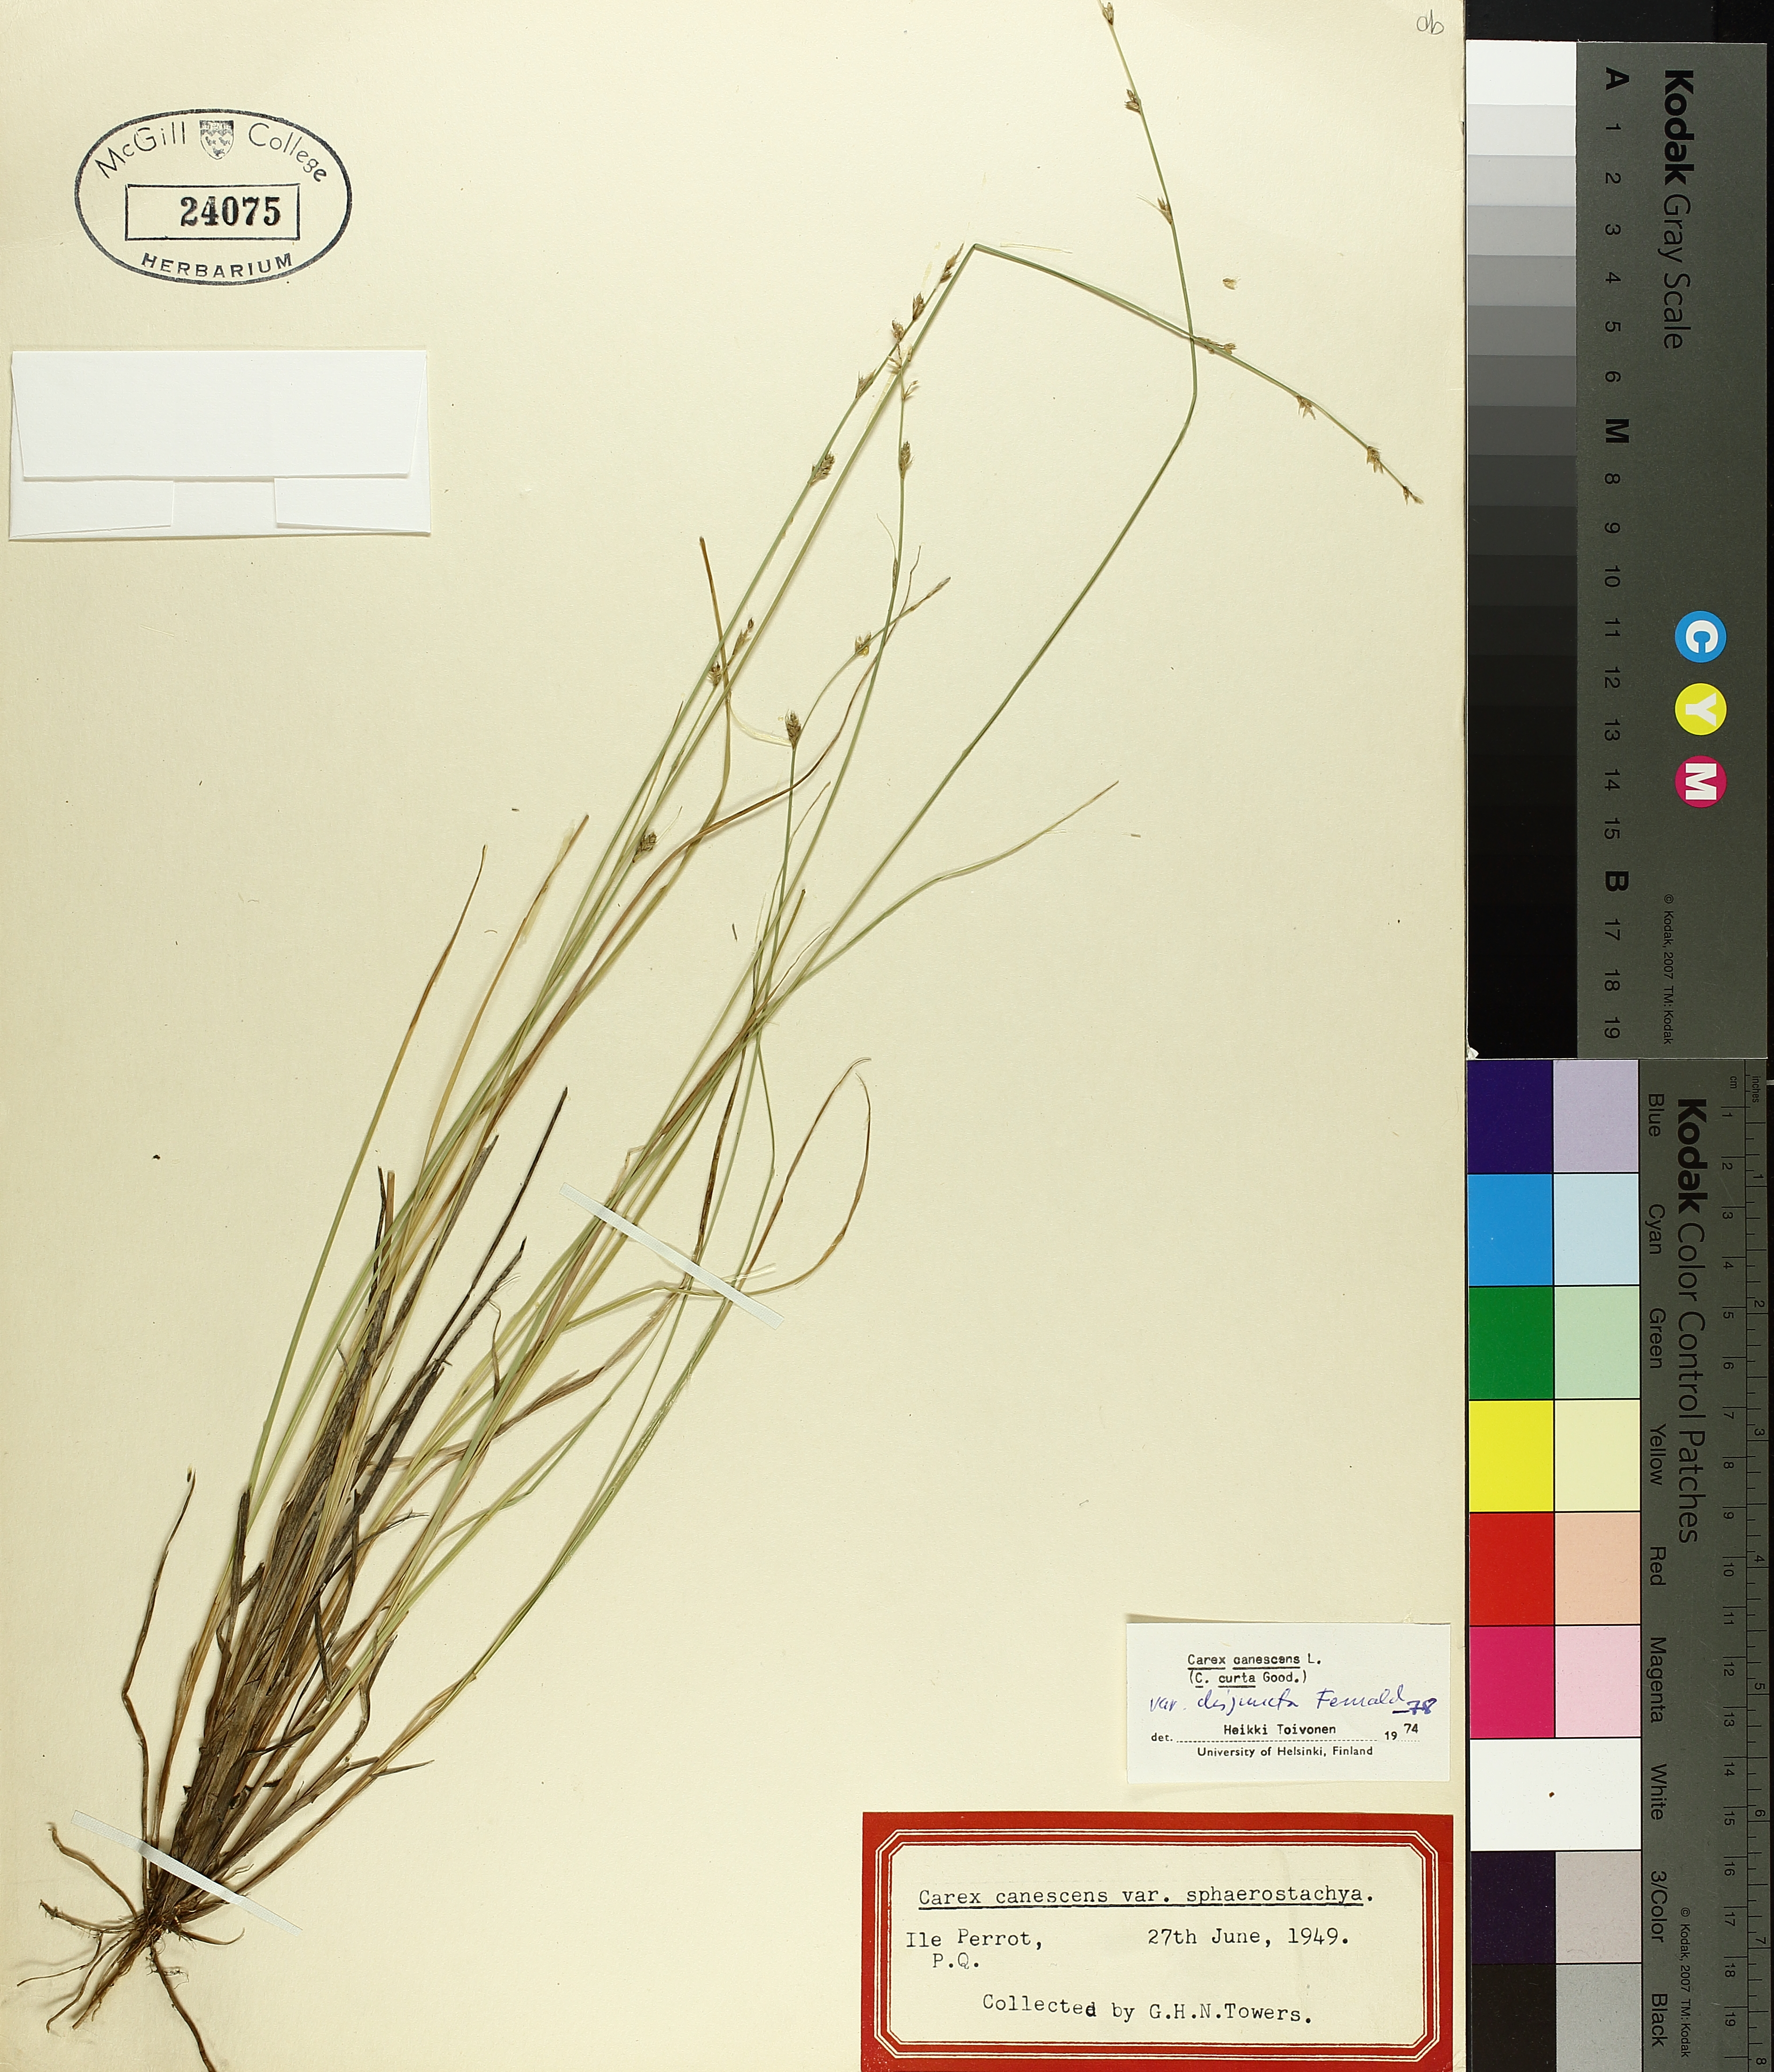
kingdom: Plantae
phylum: Tracheophyta
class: Liliopsida
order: Poales
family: Cyperaceae
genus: Carex
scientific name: Carex canescens
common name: White sedge
